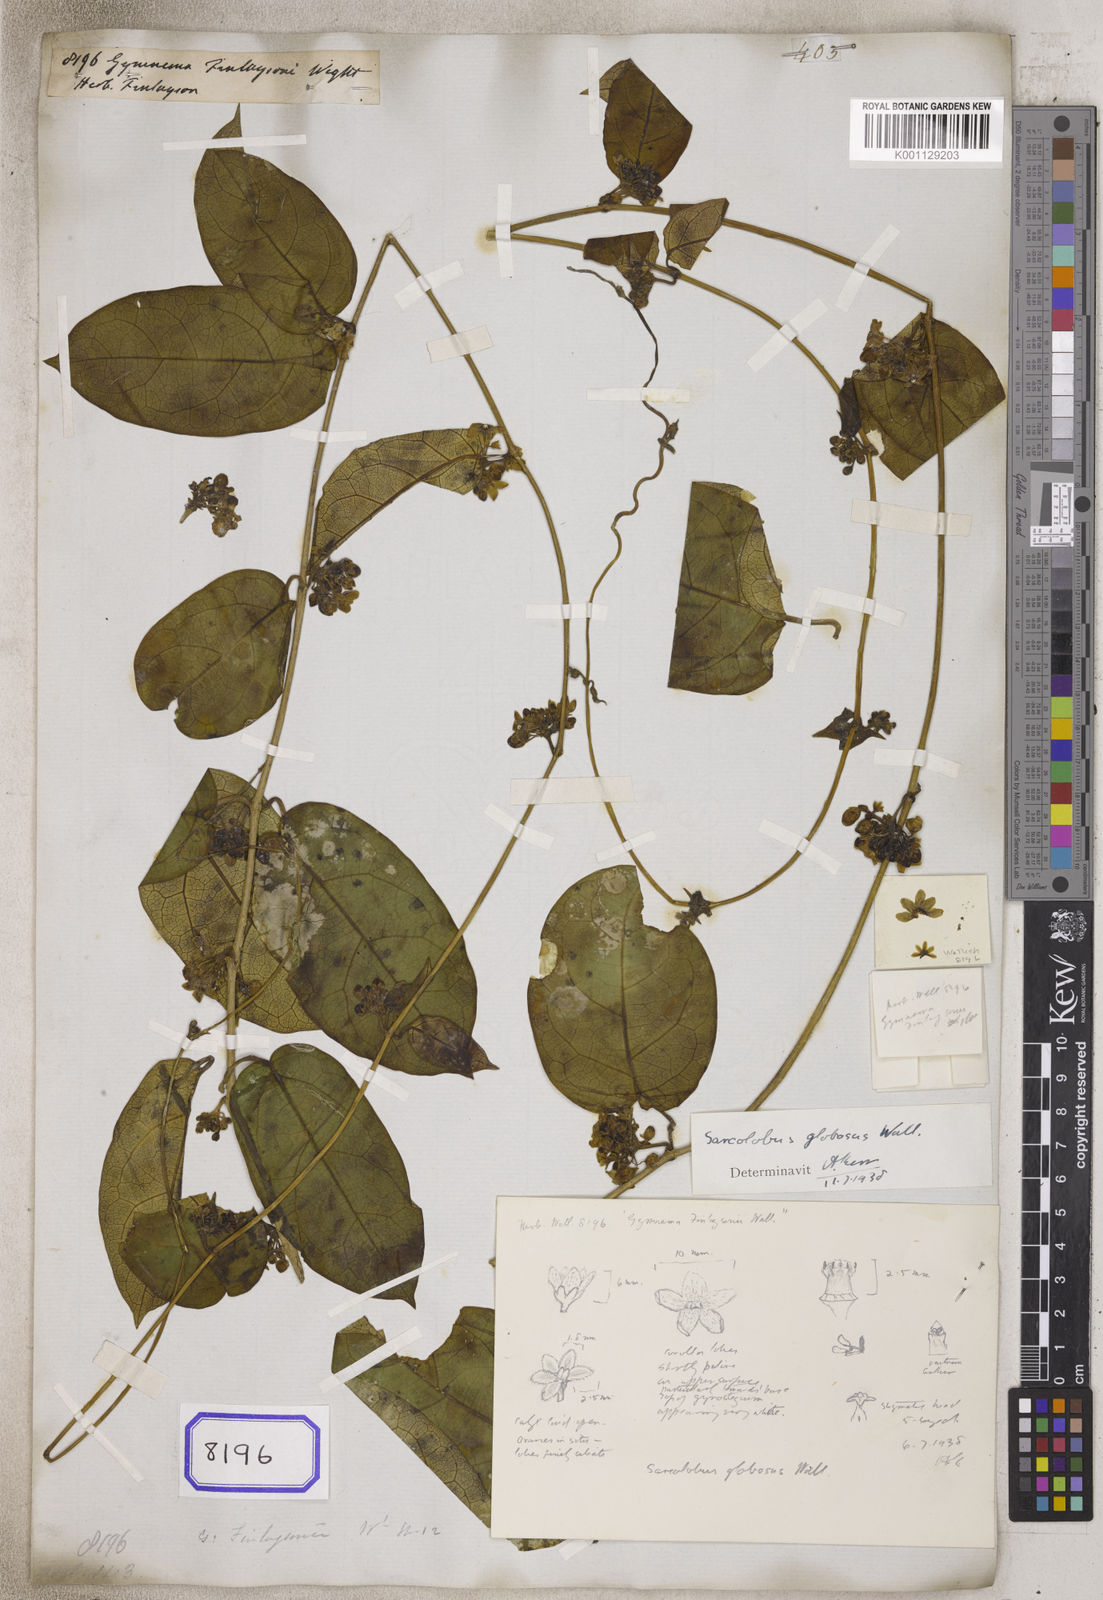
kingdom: Plantae
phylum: Tracheophyta
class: Magnoliopsida
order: Gentianales
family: Apocynaceae
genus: Sarcolobus
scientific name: Sarcolobus globosus
